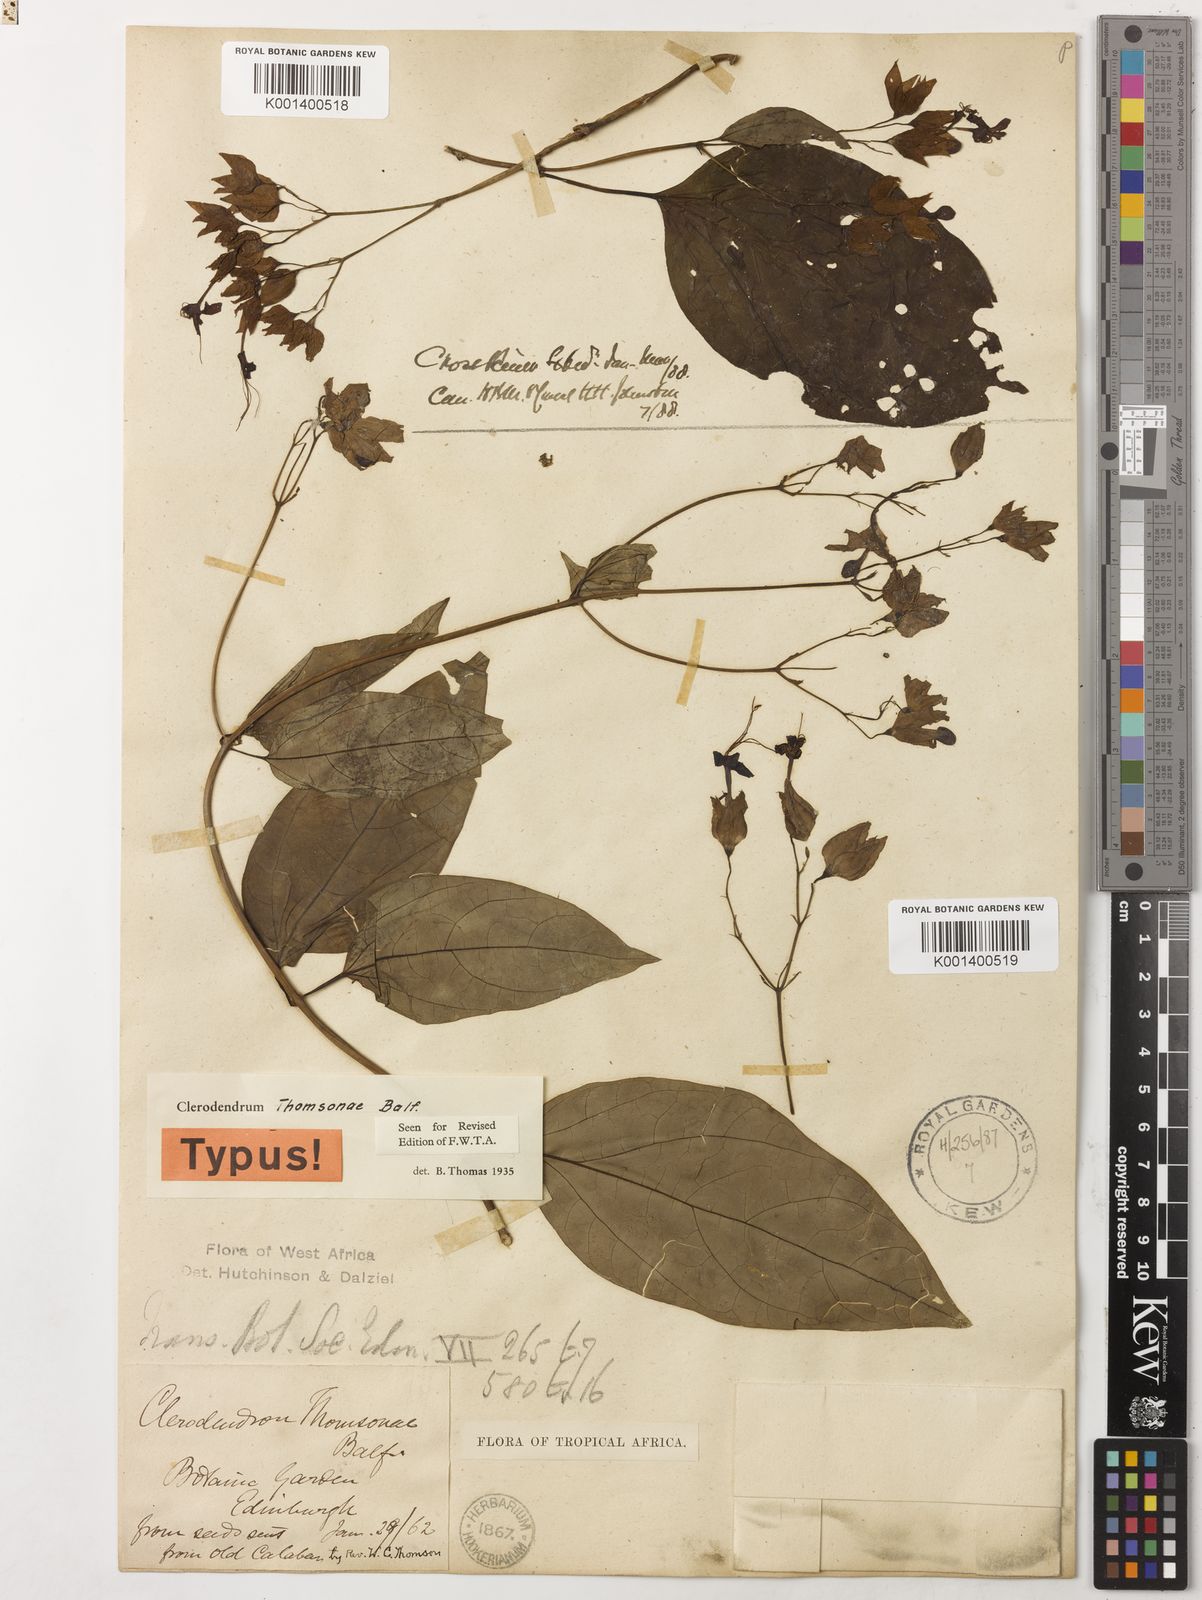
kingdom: Plantae
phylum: Tracheophyta
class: Magnoliopsida
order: Lamiales
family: Lamiaceae
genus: Clerodendrum
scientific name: Clerodendrum thomsoniae
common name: Bagflower
